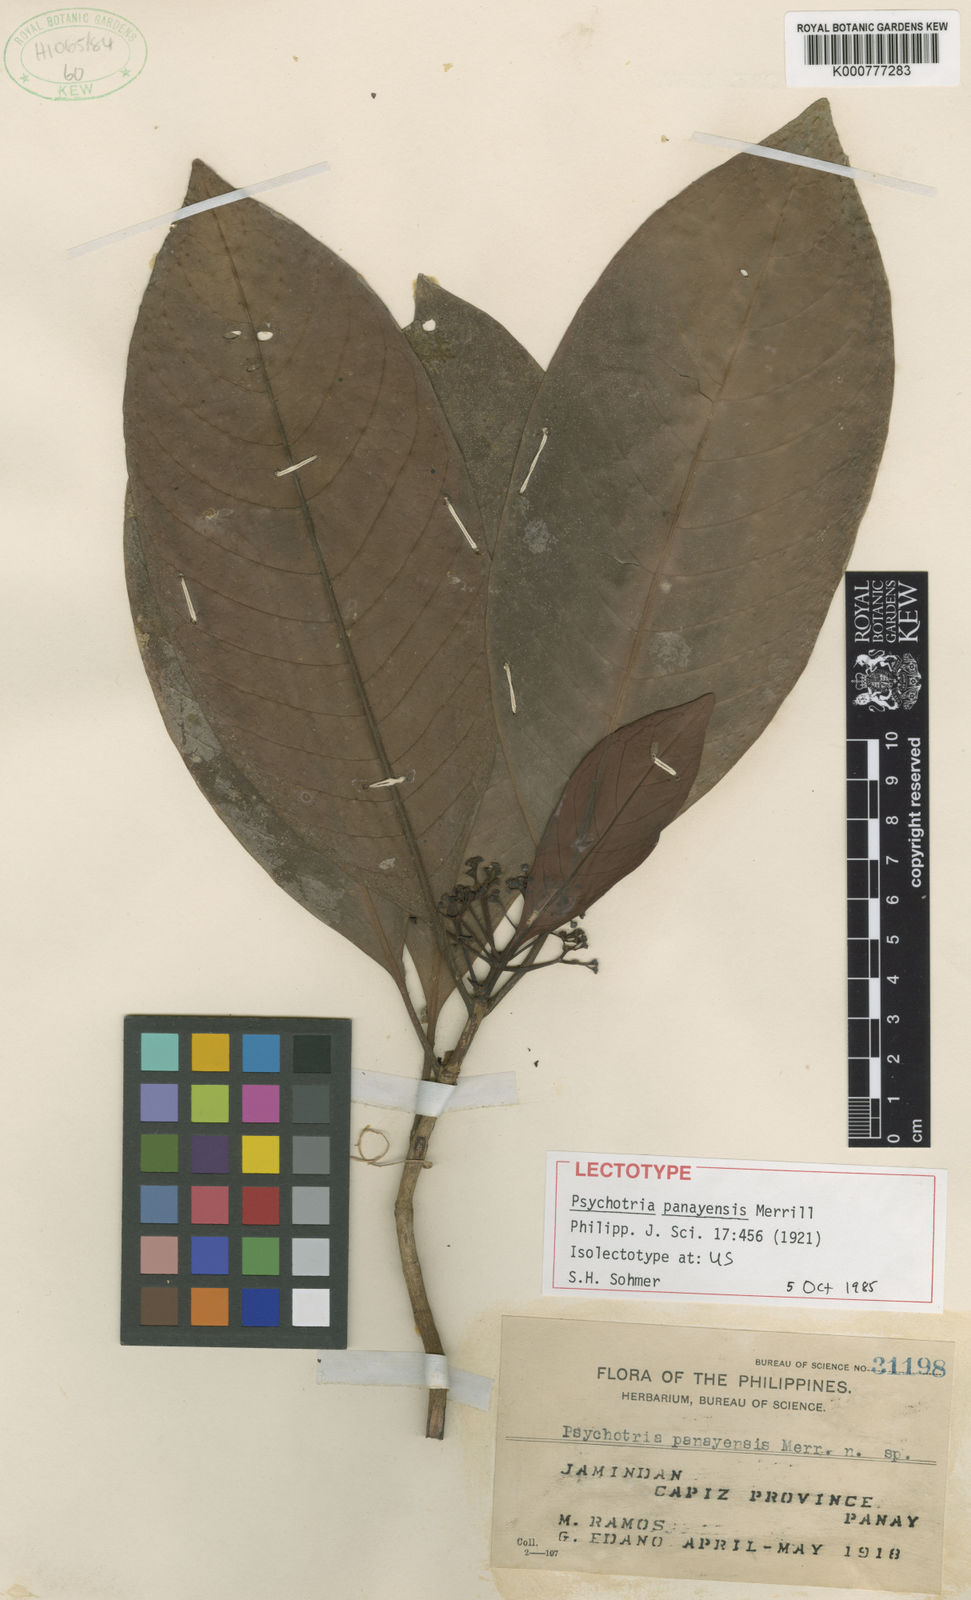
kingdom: Plantae
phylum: Tracheophyta
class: Magnoliopsida
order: Gentianales
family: Rubiaceae
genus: Psychotria
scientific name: Psychotria panayensis
